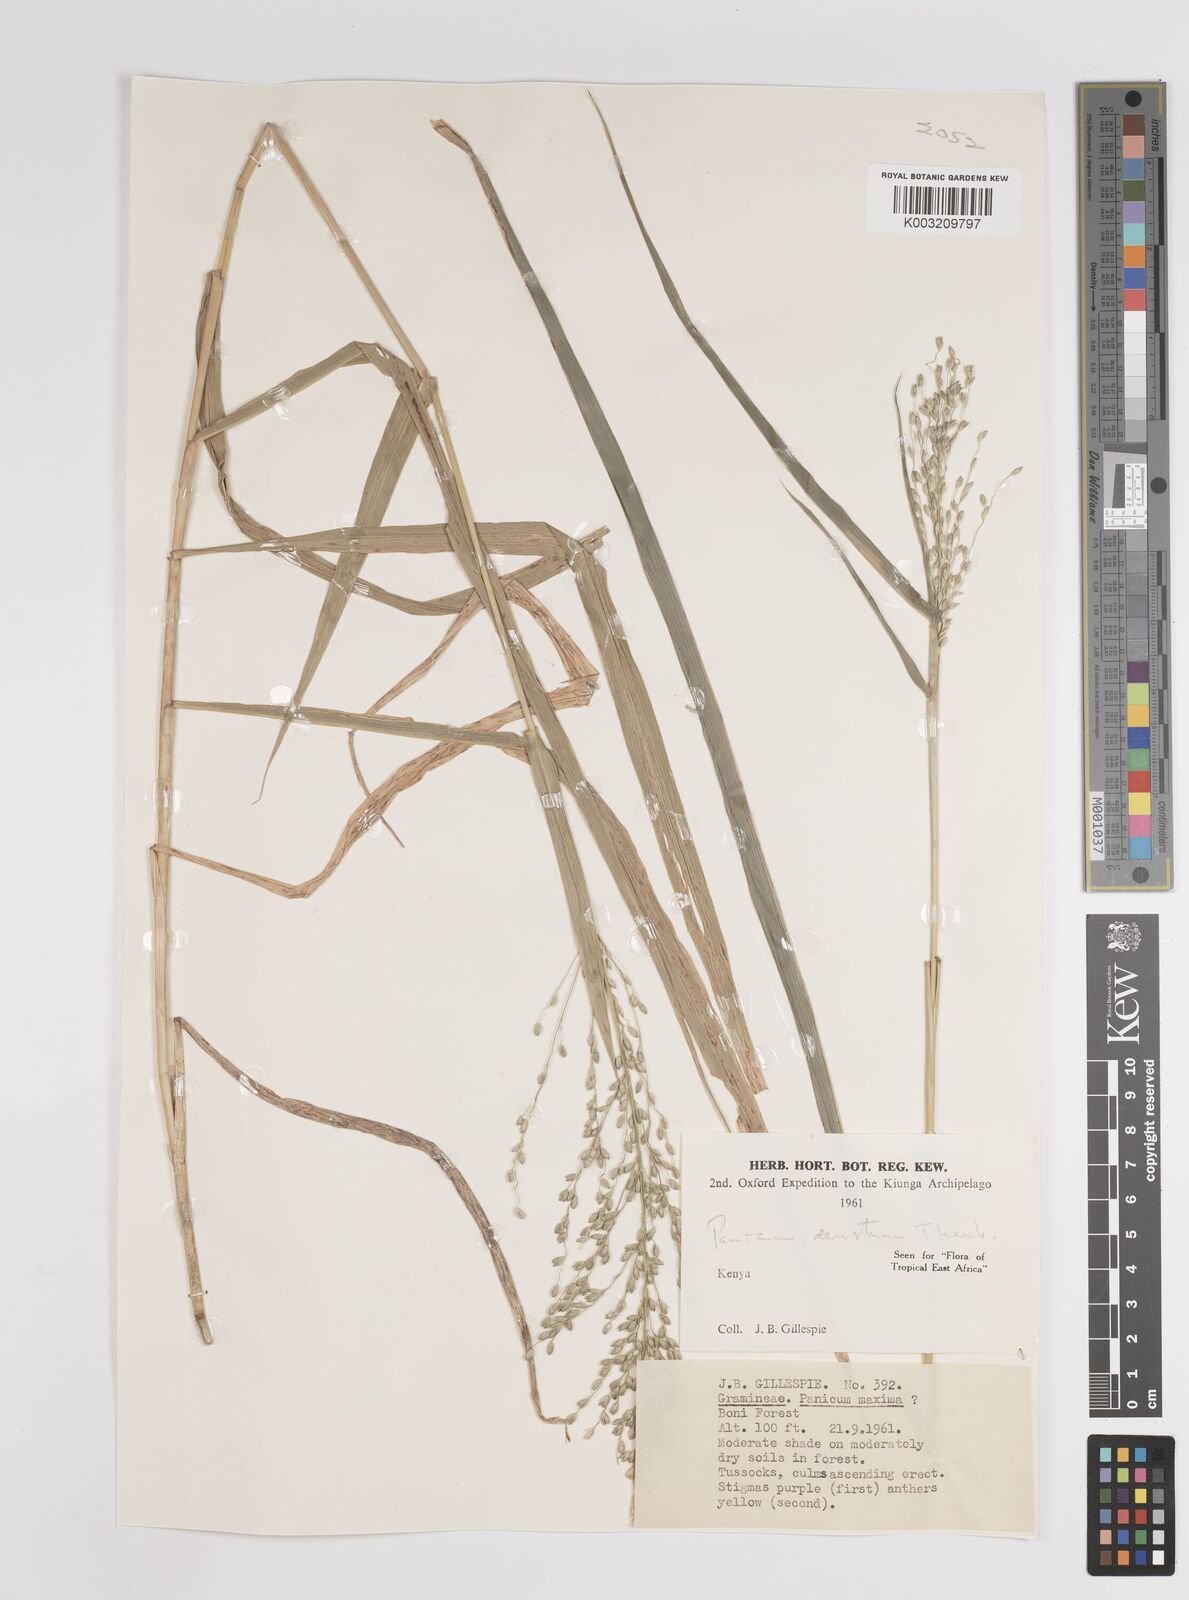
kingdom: Plantae
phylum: Tracheophyta
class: Liliopsida
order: Poales
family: Poaceae
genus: Panicum
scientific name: Panicum deustum
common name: Reed panicum
